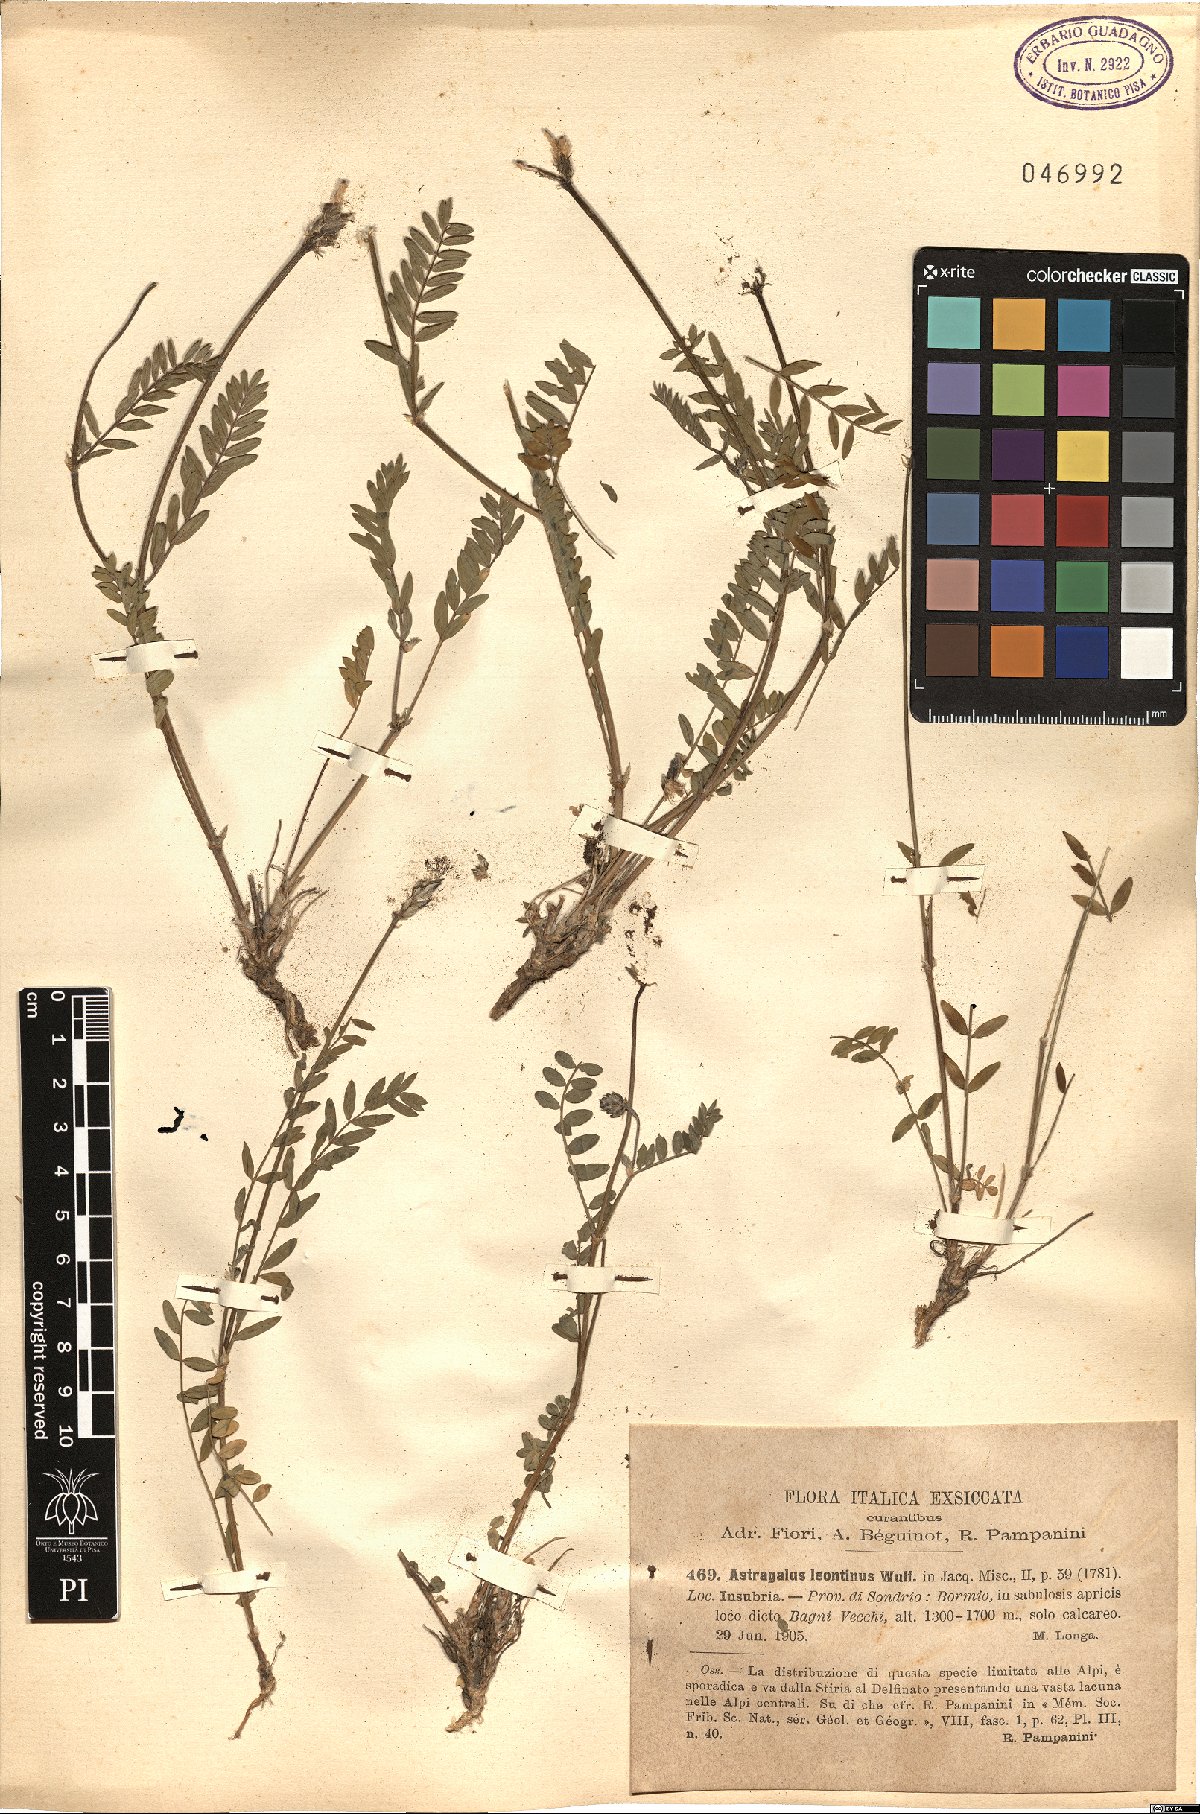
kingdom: Plantae
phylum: Tracheophyta
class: Magnoliopsida
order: Fabales
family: Fabaceae
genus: Astragalus
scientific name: Astragalus leontinus
